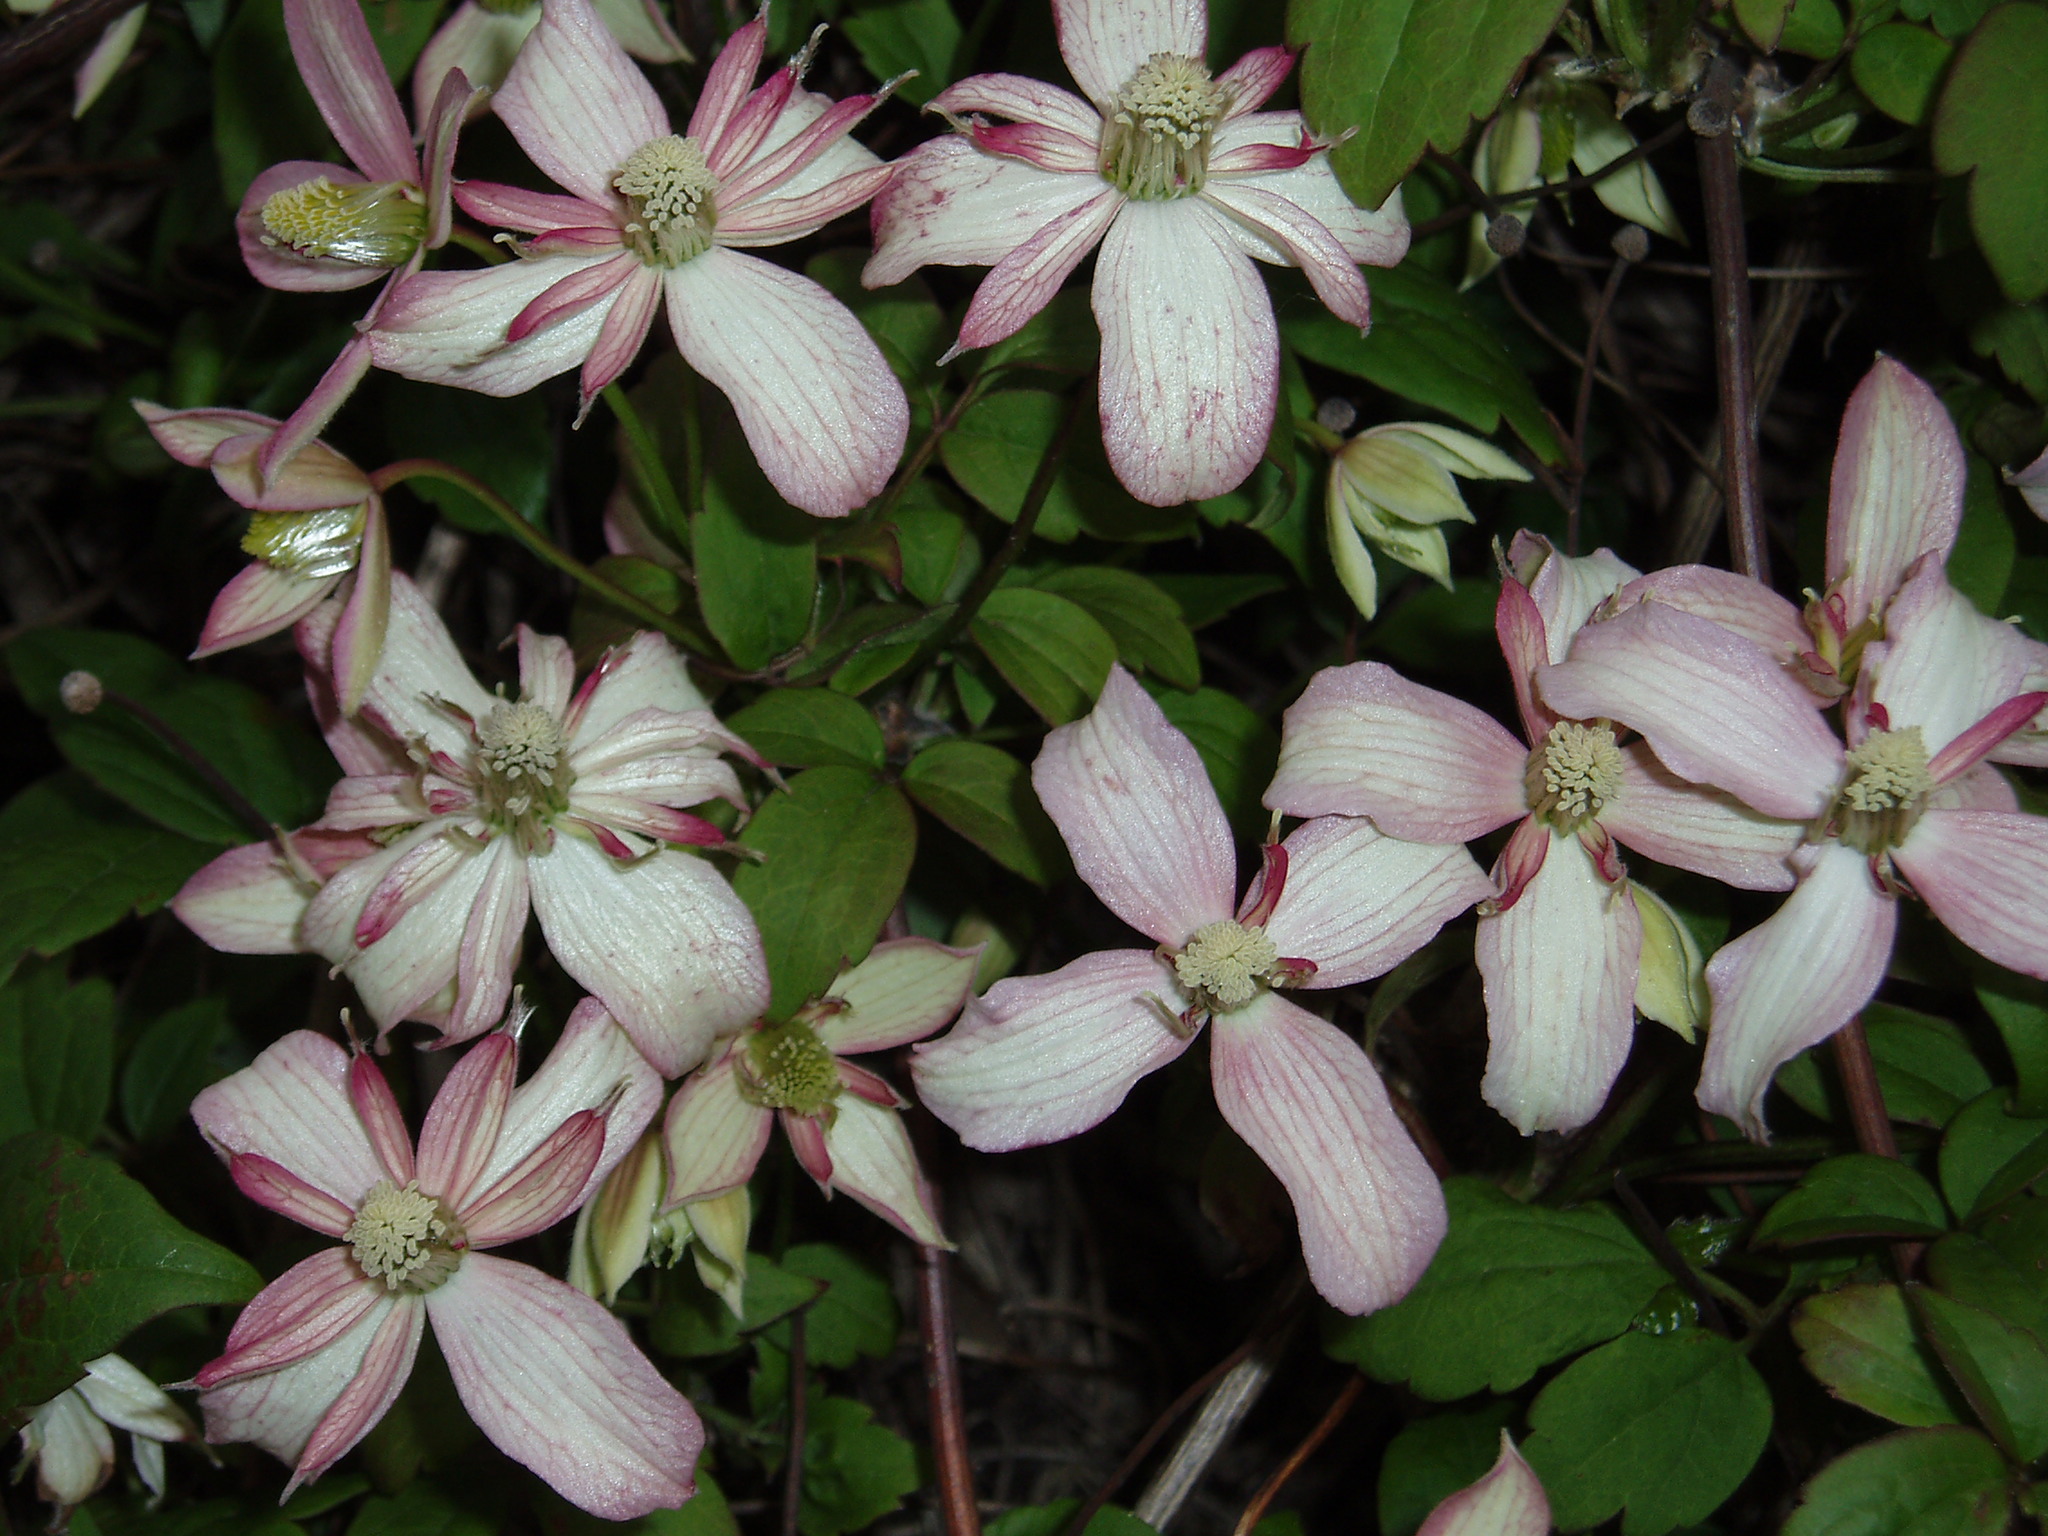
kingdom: Plantae
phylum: Tracheophyta
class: Magnoliopsida
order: Ranunculales
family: Ranunculaceae
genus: Clematis
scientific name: Clematis montana
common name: Himalayan clematis
